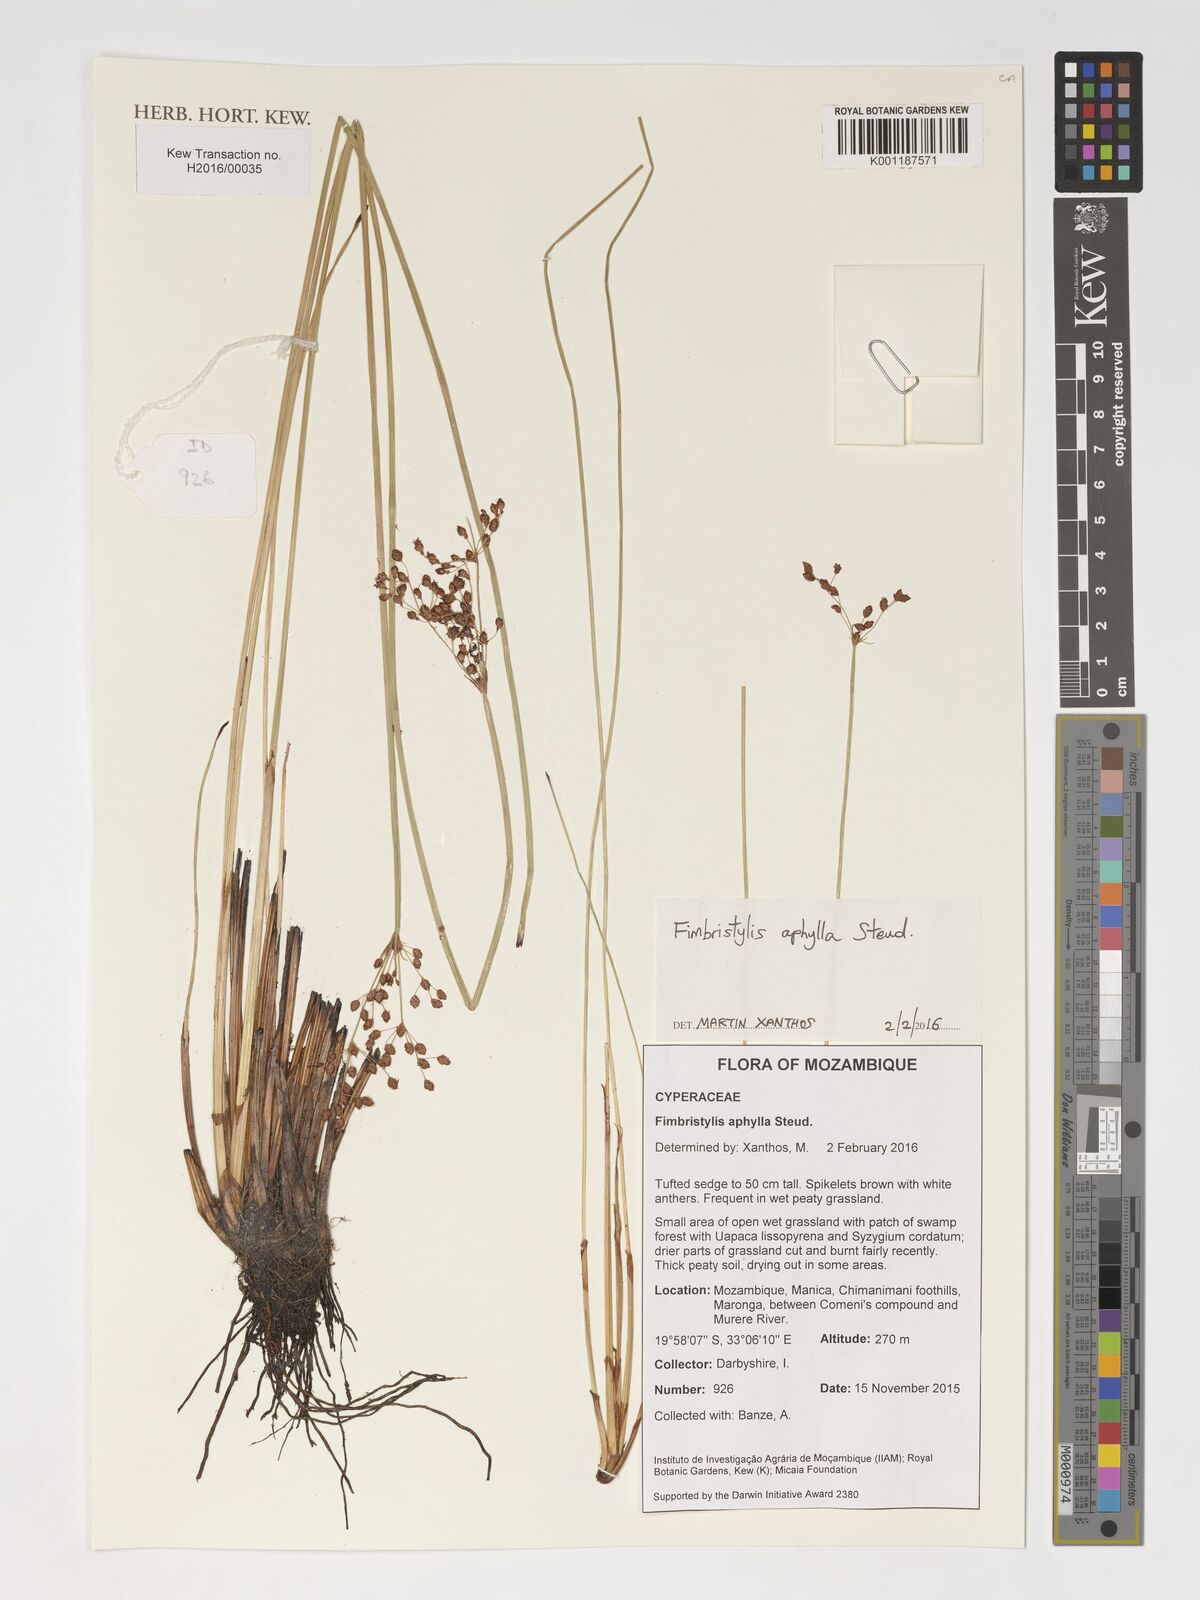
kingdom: Plantae
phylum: Tracheophyta
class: Liliopsida
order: Poales
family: Cyperaceae
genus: Fimbristylis
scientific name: Fimbristylis aphylla
